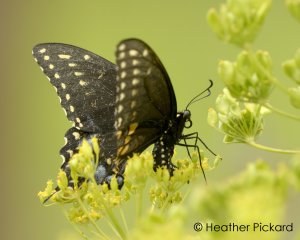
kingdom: Animalia
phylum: Arthropoda
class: Insecta
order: Lepidoptera
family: Papilionidae
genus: Papilio
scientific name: Papilio polyxenes
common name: Black Swallowtail
